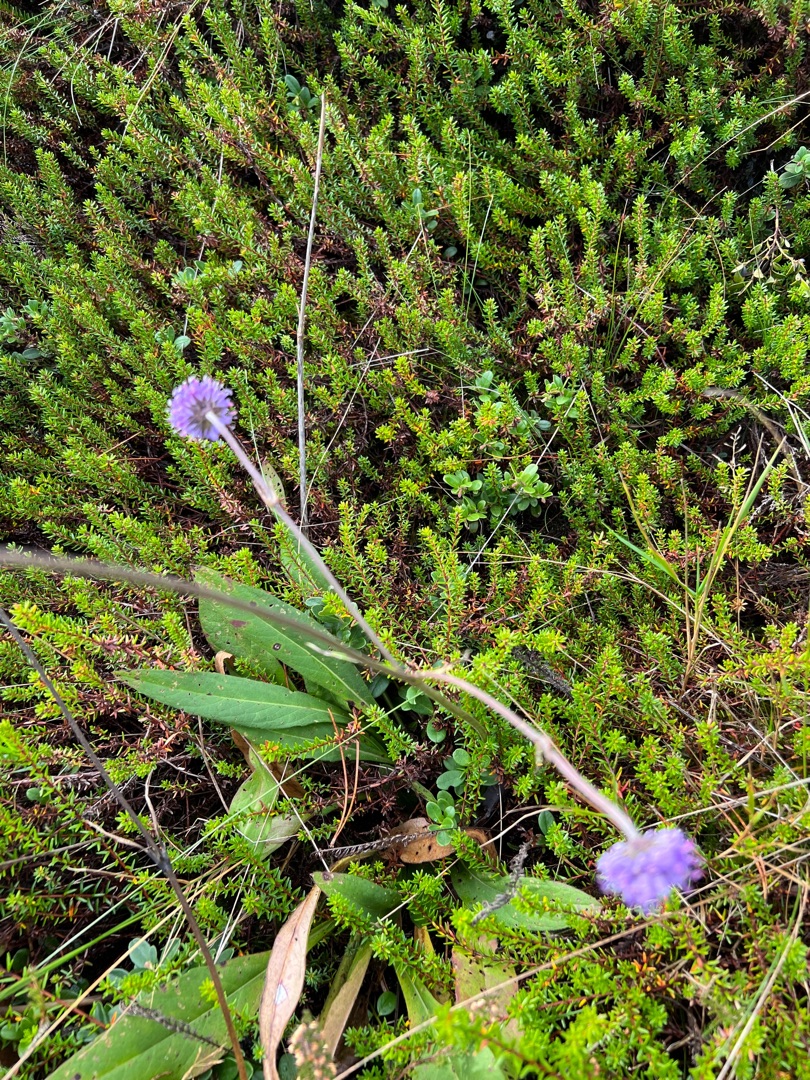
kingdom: Plantae
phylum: Tracheophyta
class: Magnoliopsida
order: Dipsacales
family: Caprifoliaceae
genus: Succisa
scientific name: Succisa pratensis
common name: Djævelsbid
